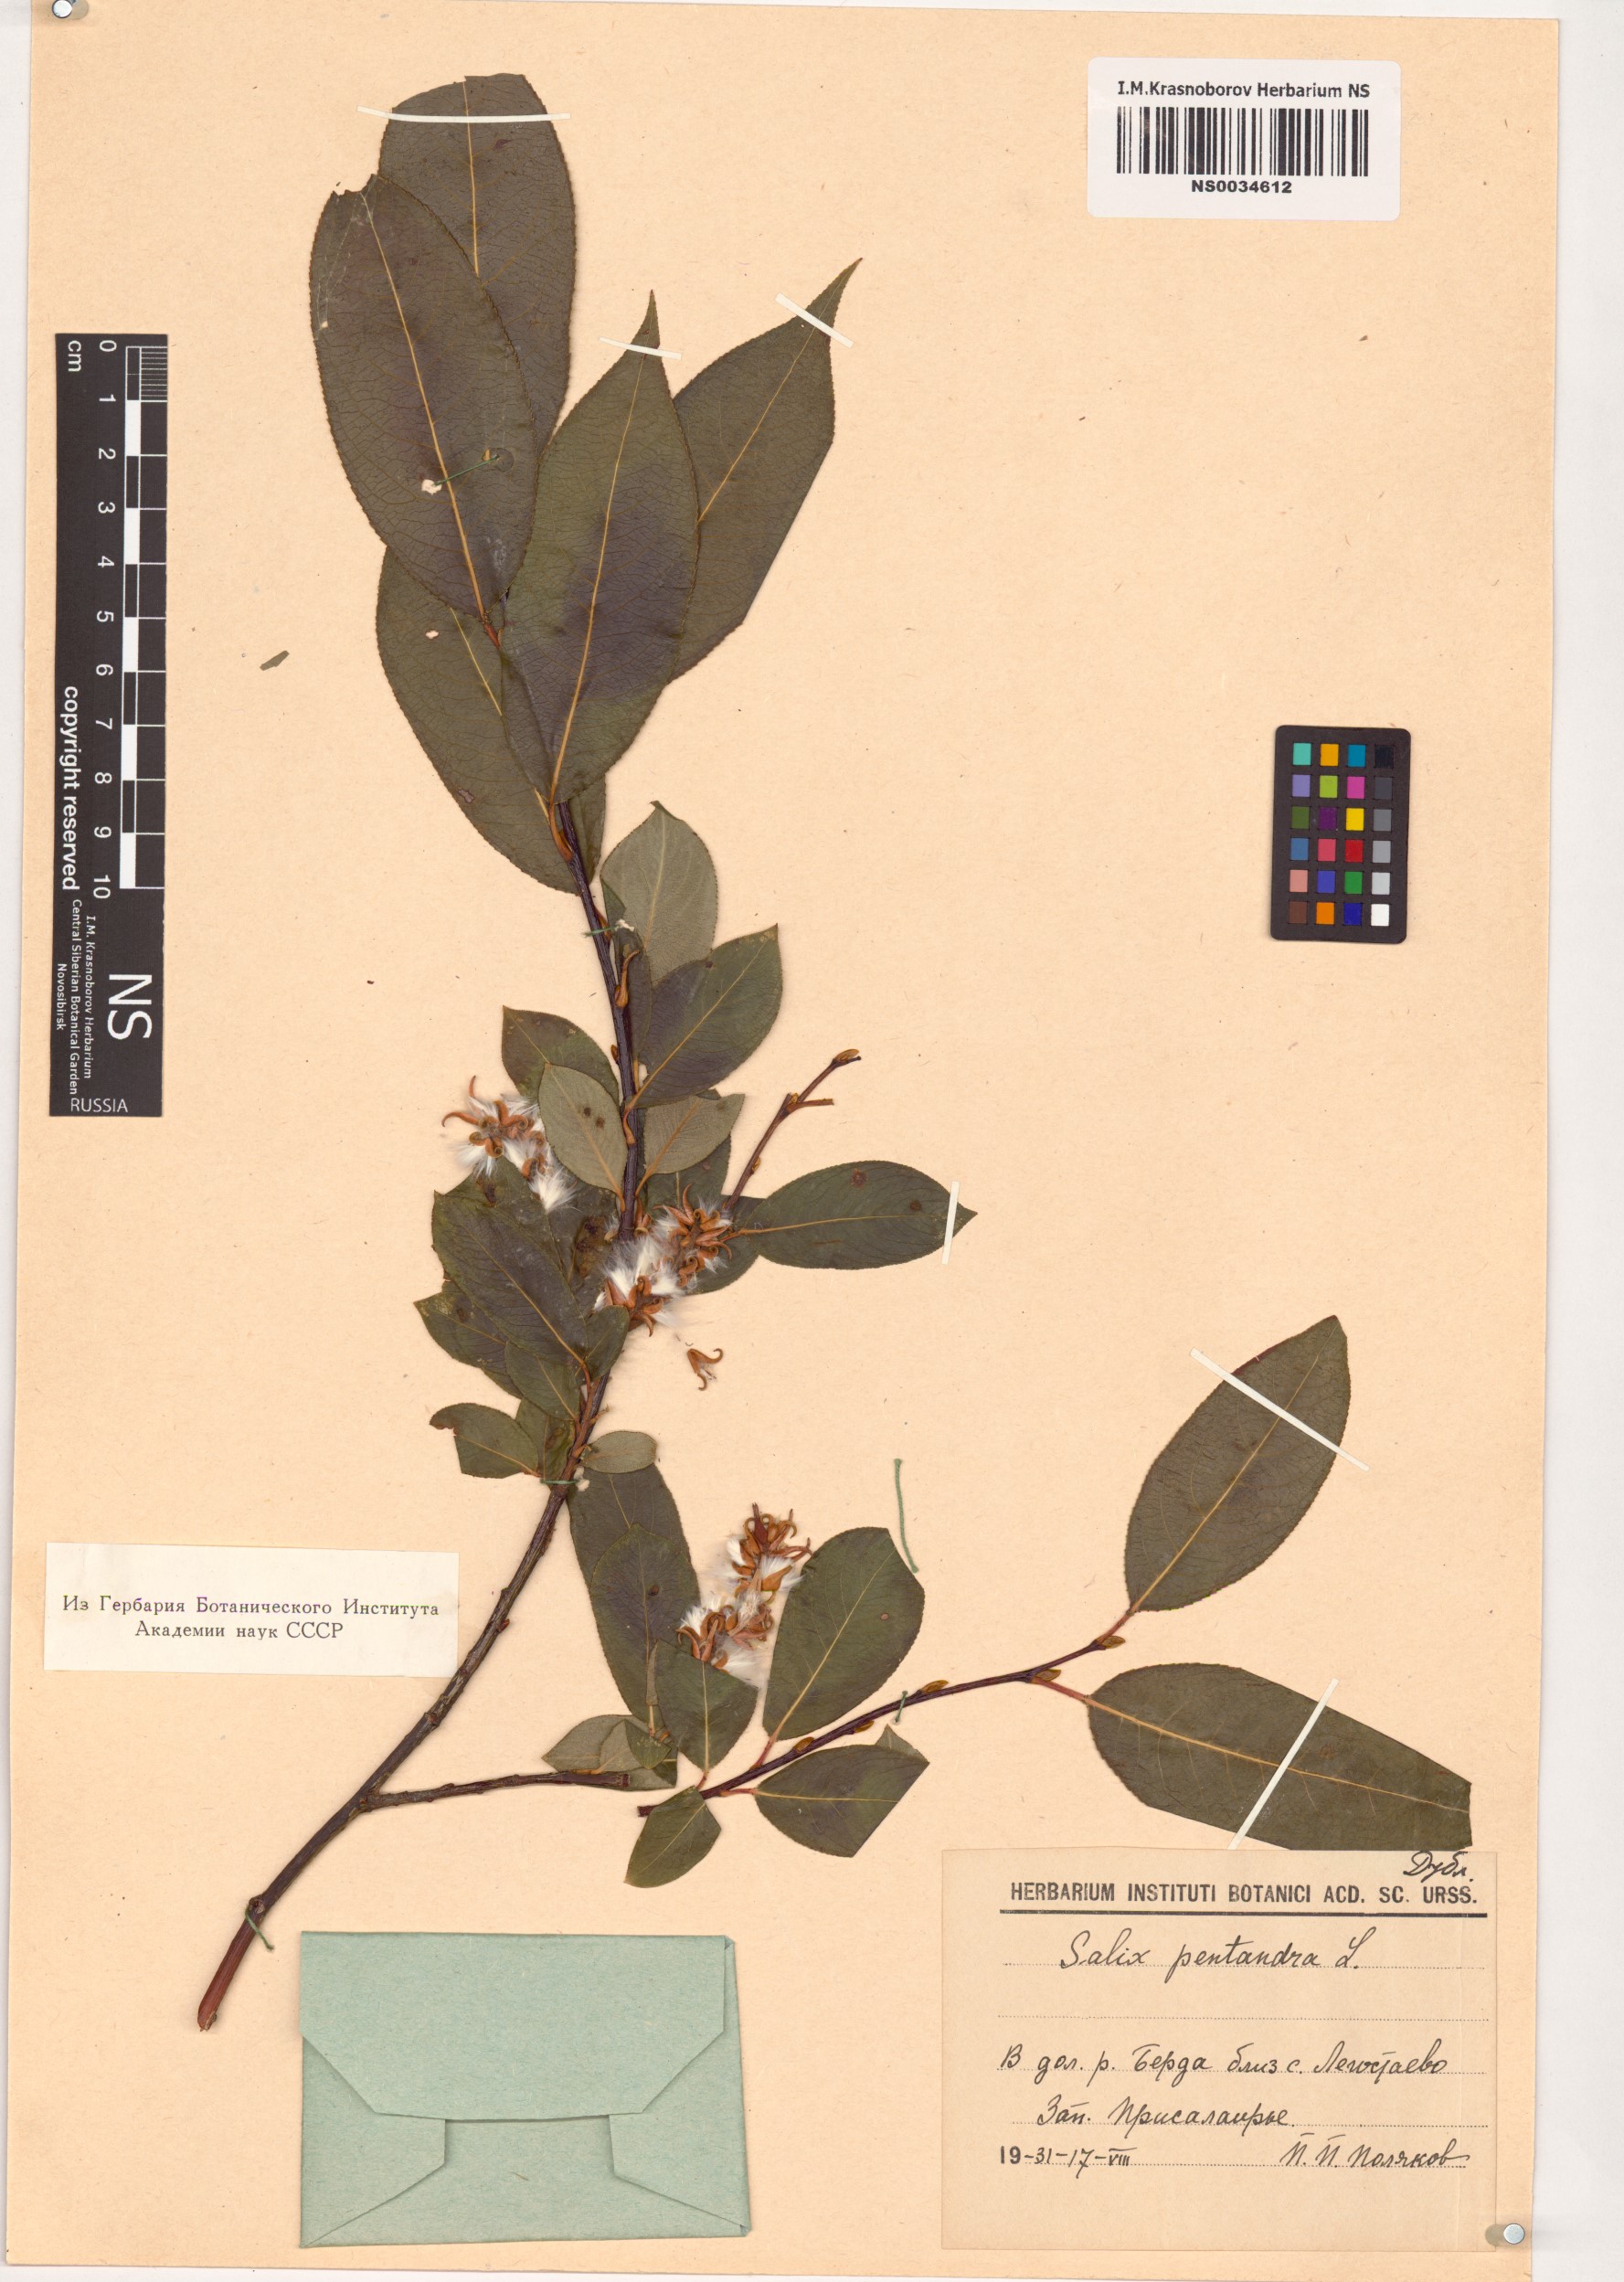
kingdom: Plantae
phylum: Tracheophyta
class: Magnoliopsida
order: Malpighiales
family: Salicaceae
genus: Salix
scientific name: Salix pentandra
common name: Bay willow
